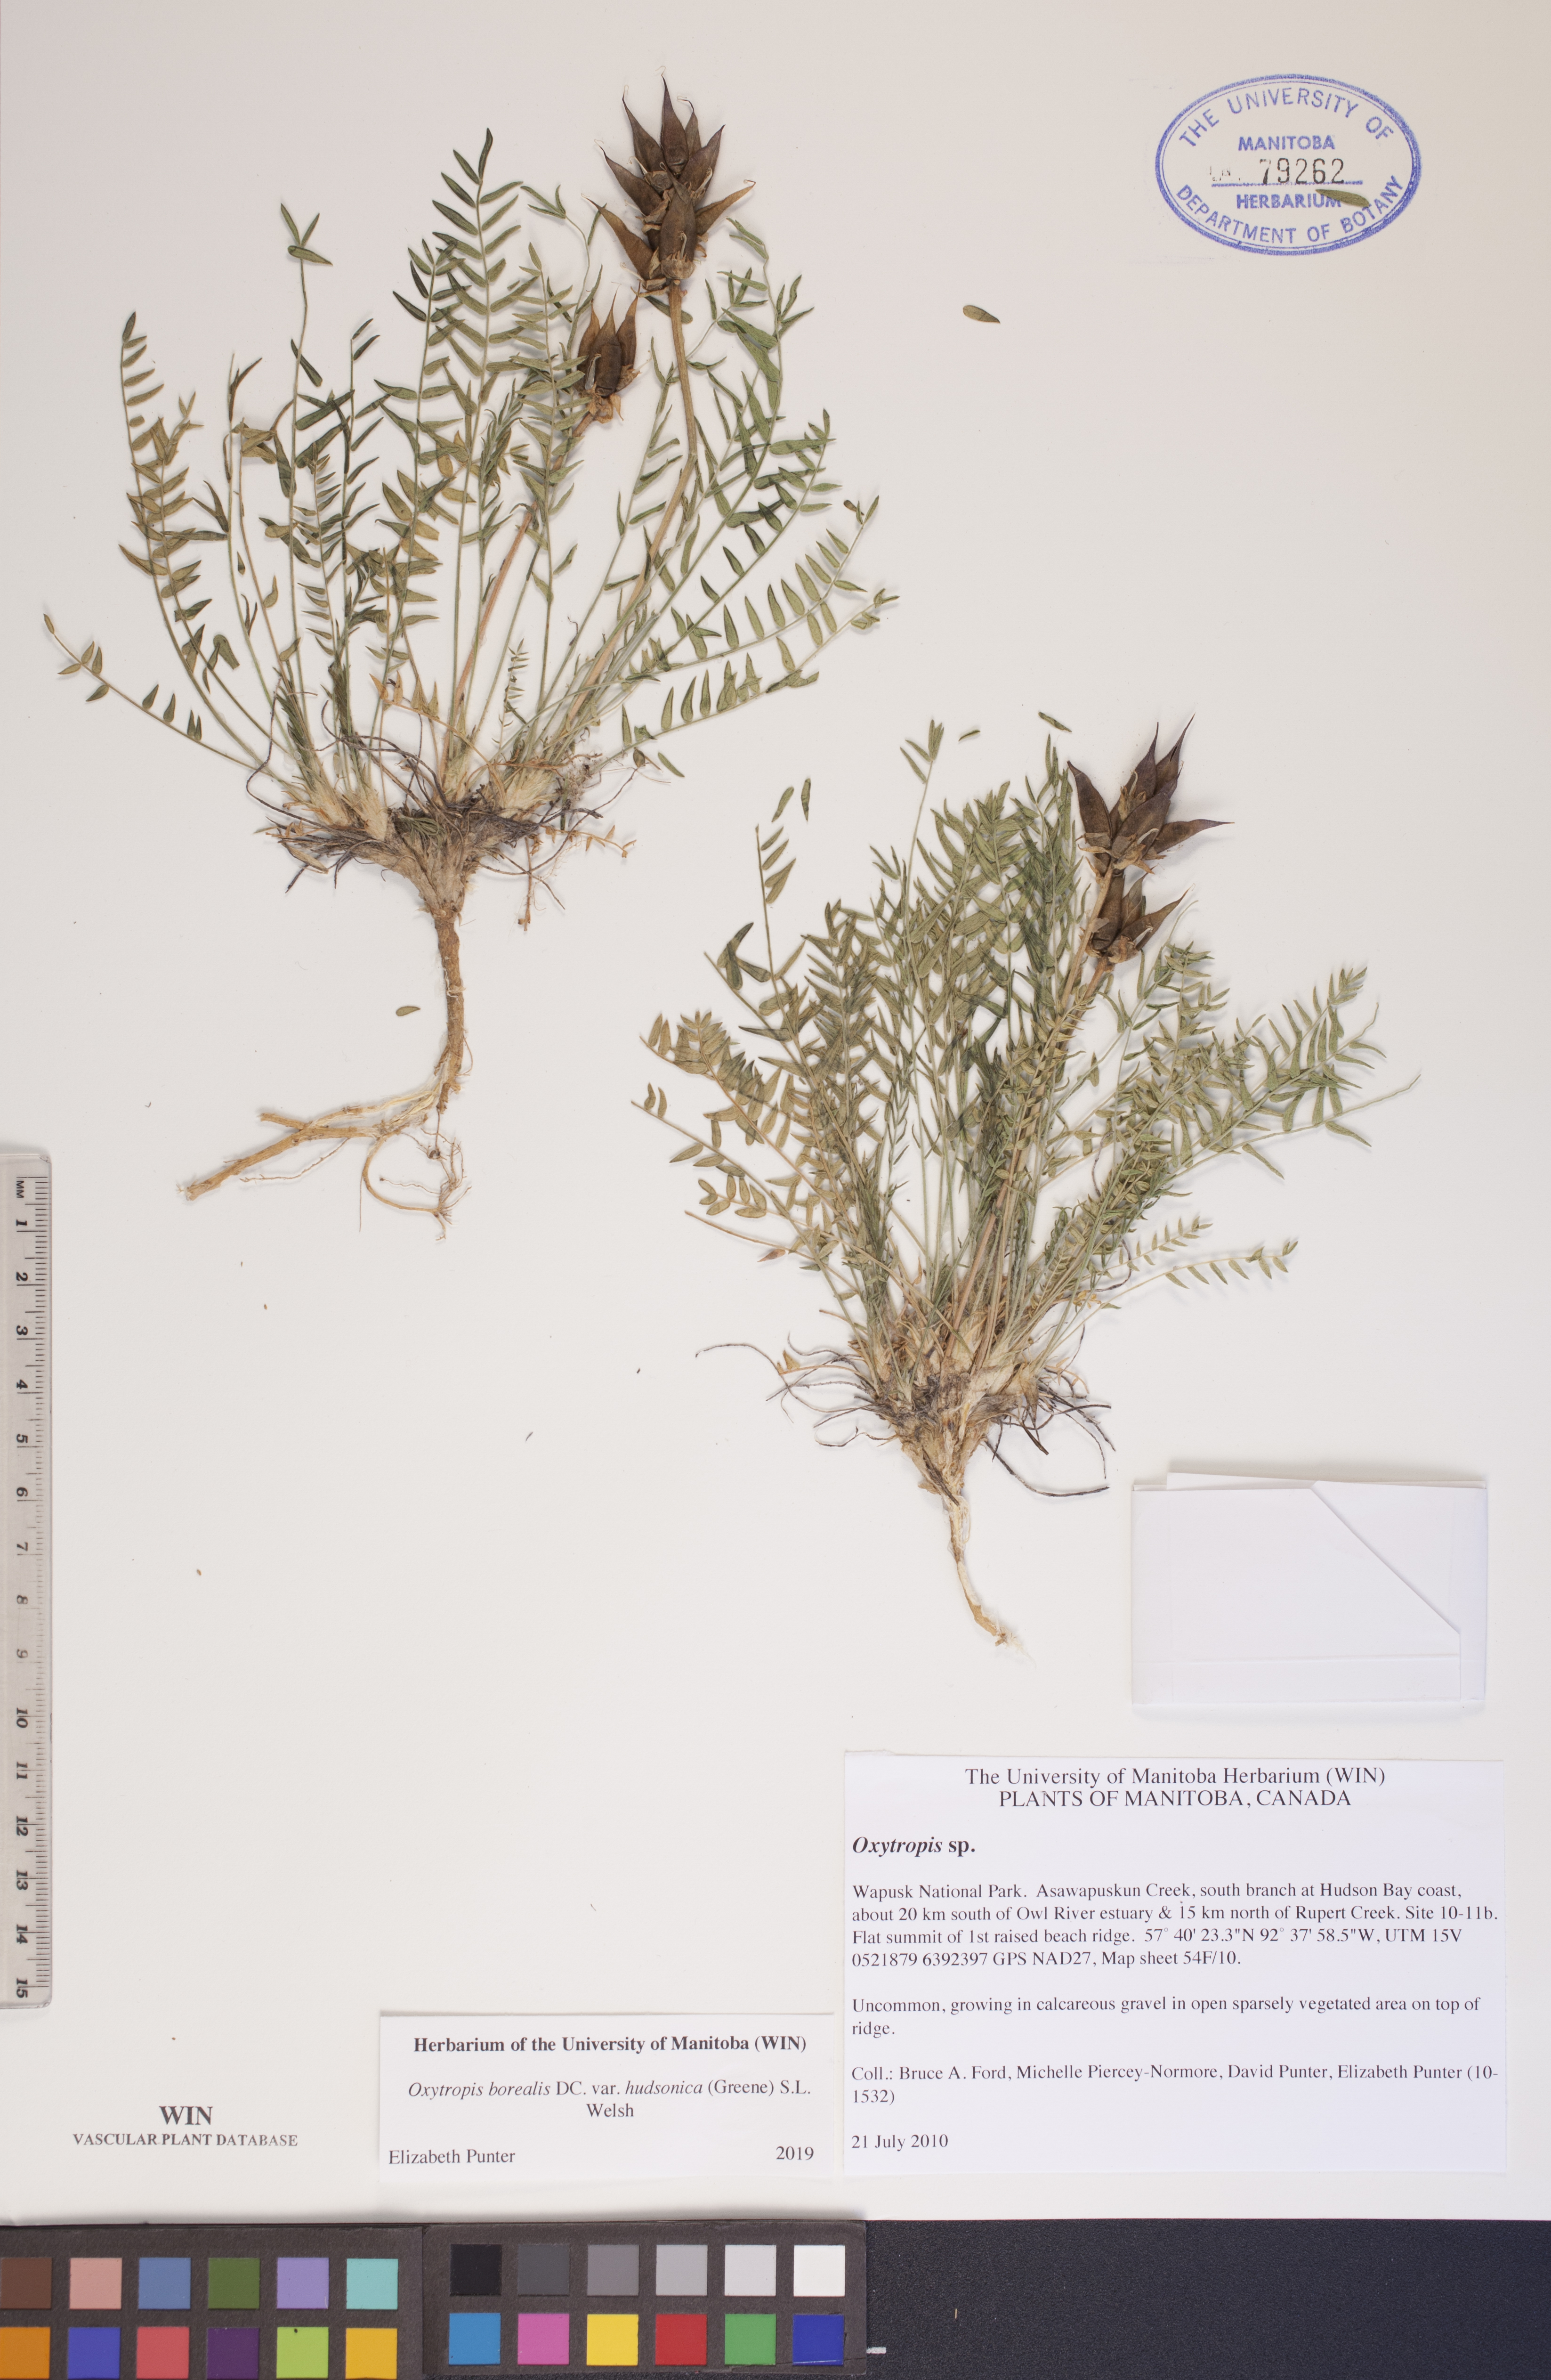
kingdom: Plantae
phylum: Tracheophyta
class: Magnoliopsida
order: Fabales
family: Fabaceae
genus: Oxytropis
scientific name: Oxytropis hudsonica
